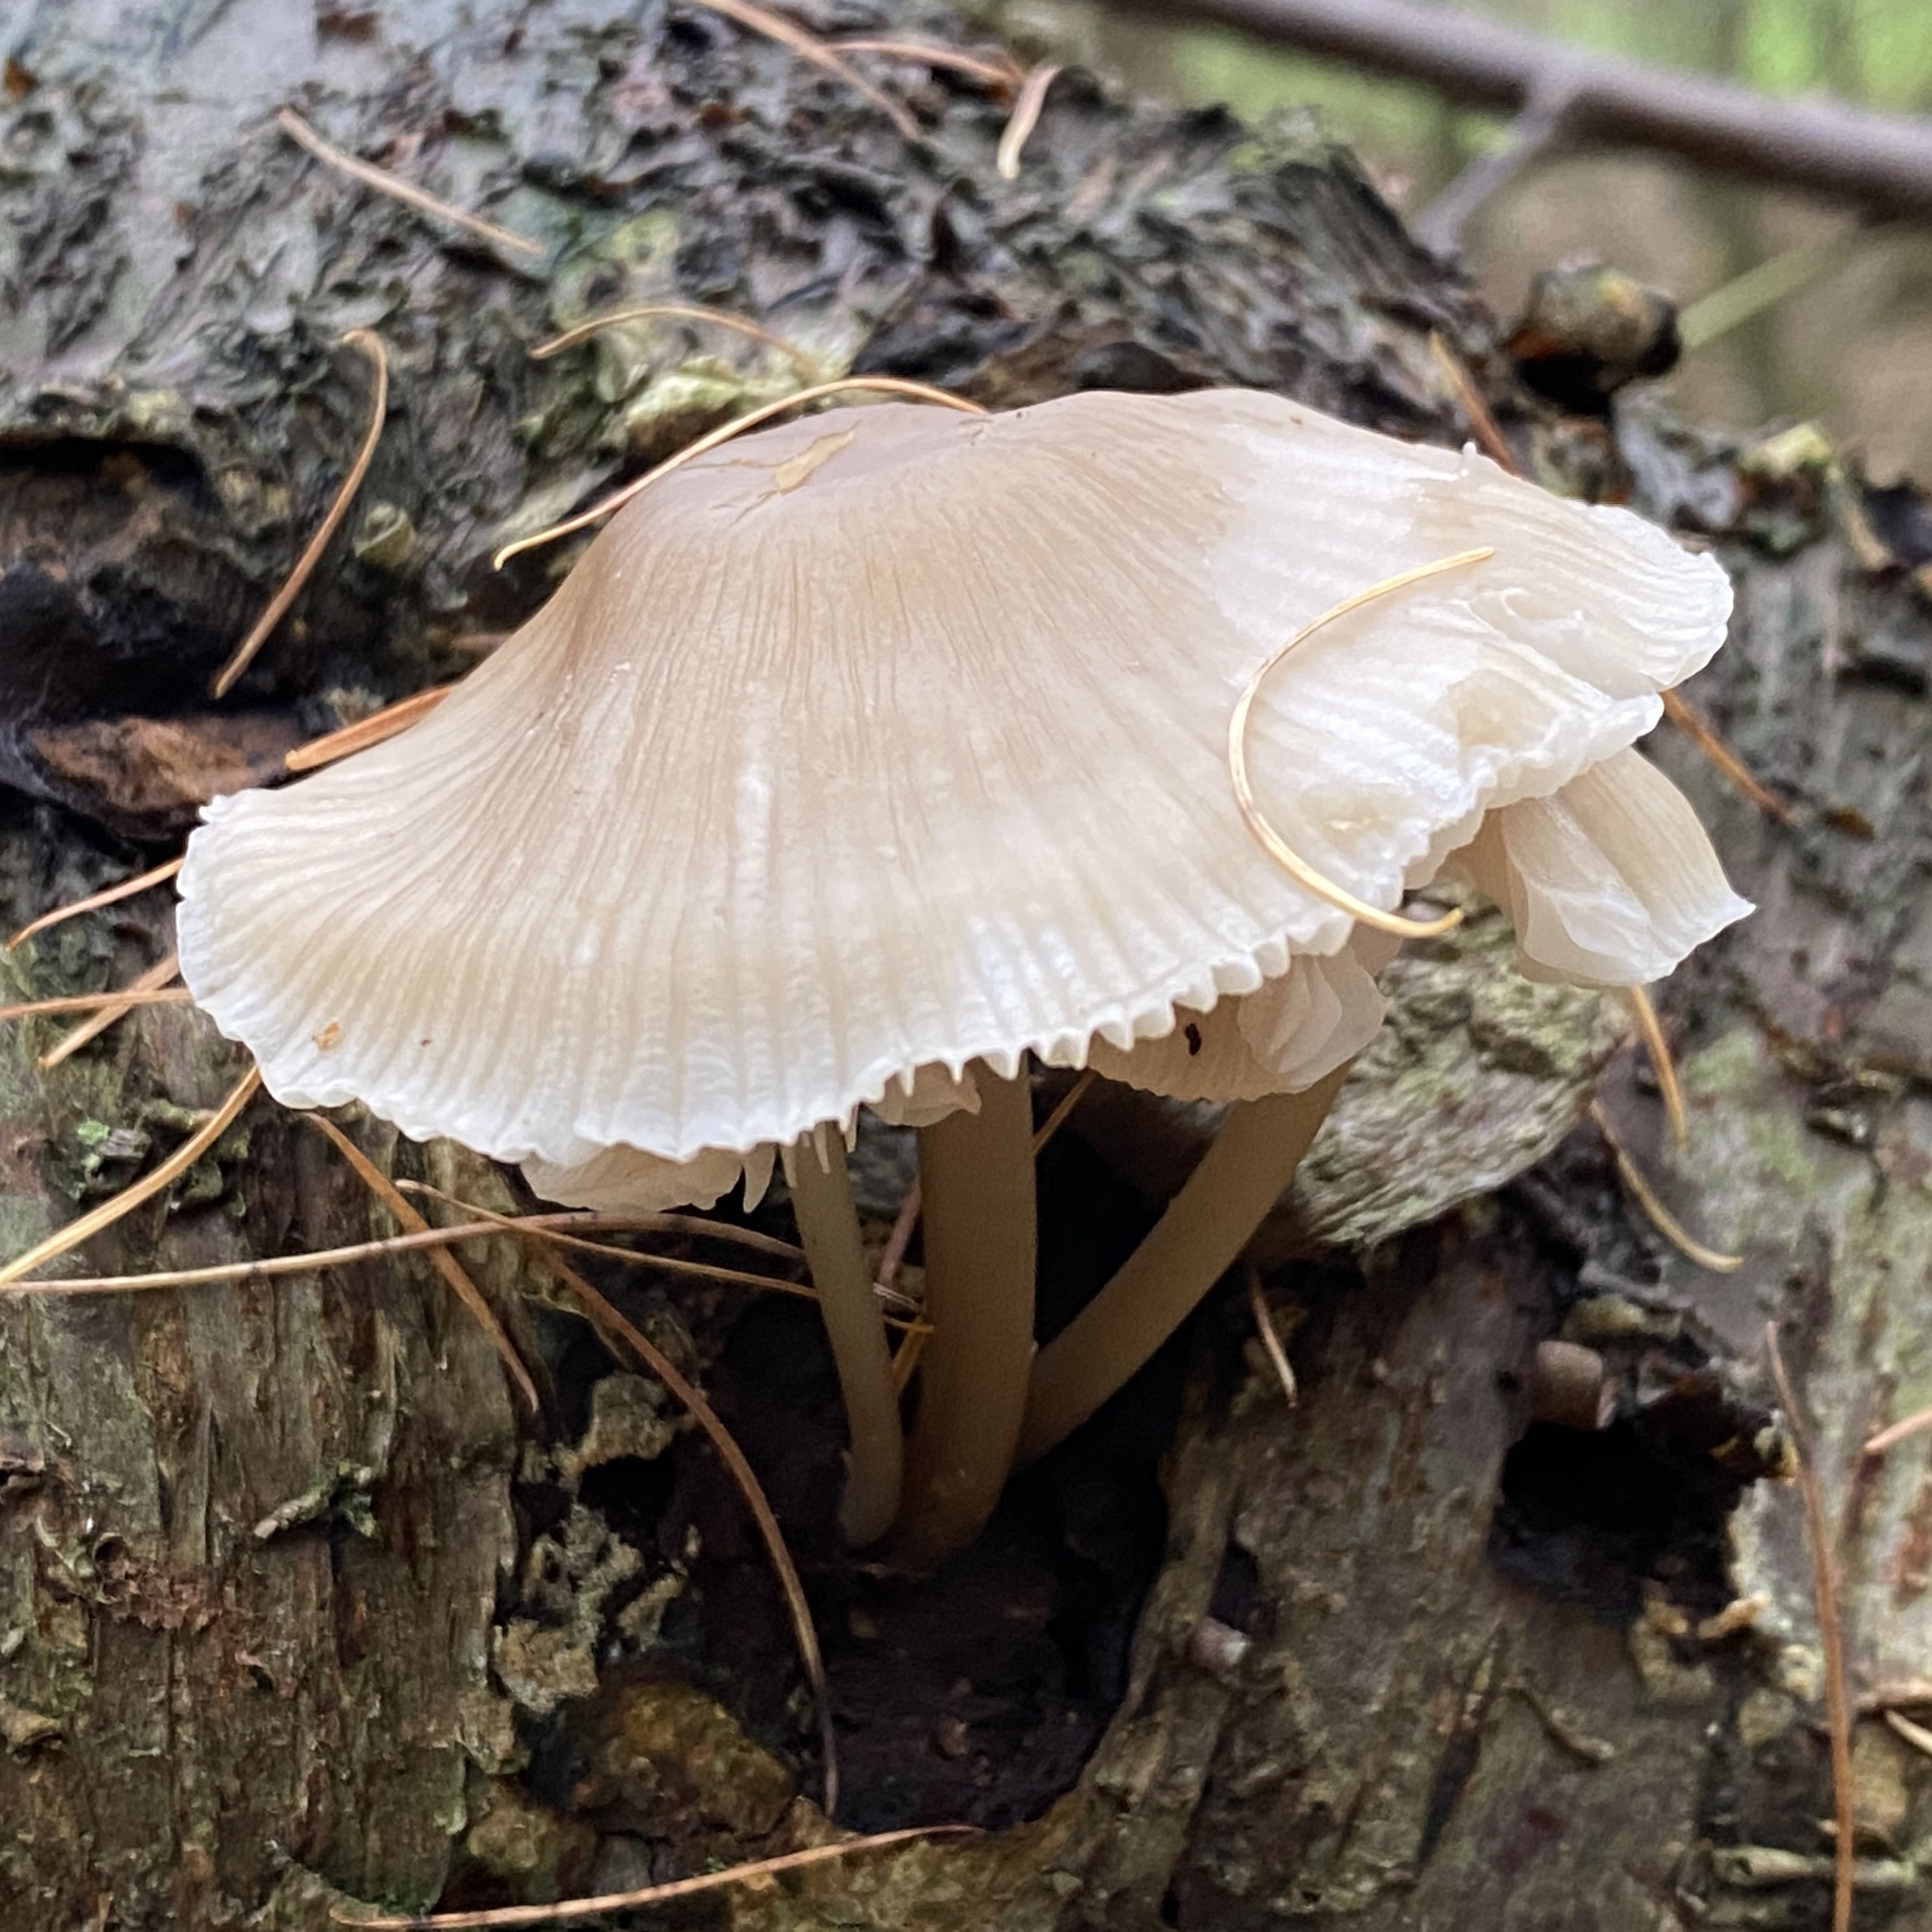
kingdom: Fungi
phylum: Basidiomycota
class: Agaricomycetes
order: Agaricales
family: Mycenaceae
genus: Mycena
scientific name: Mycena galericulata
